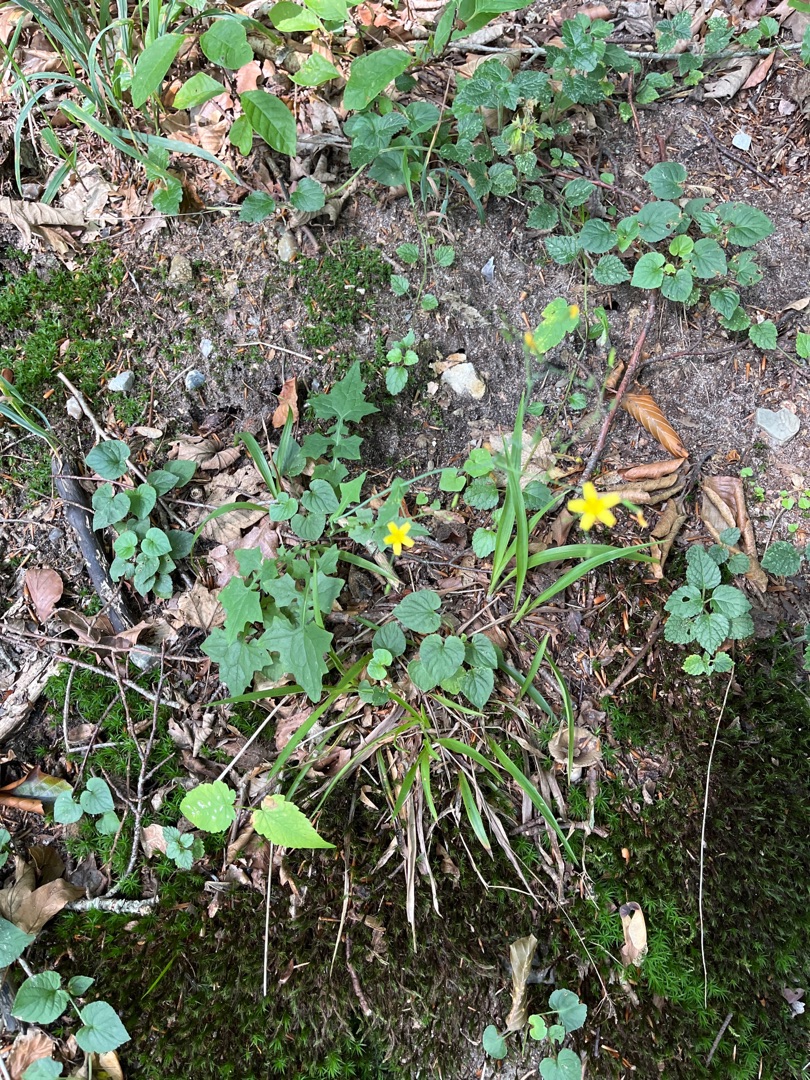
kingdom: Plantae
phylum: Tracheophyta
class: Magnoliopsida
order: Asterales
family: Asteraceae
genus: Mycelis
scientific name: Mycelis muralis
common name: Skov-salat
